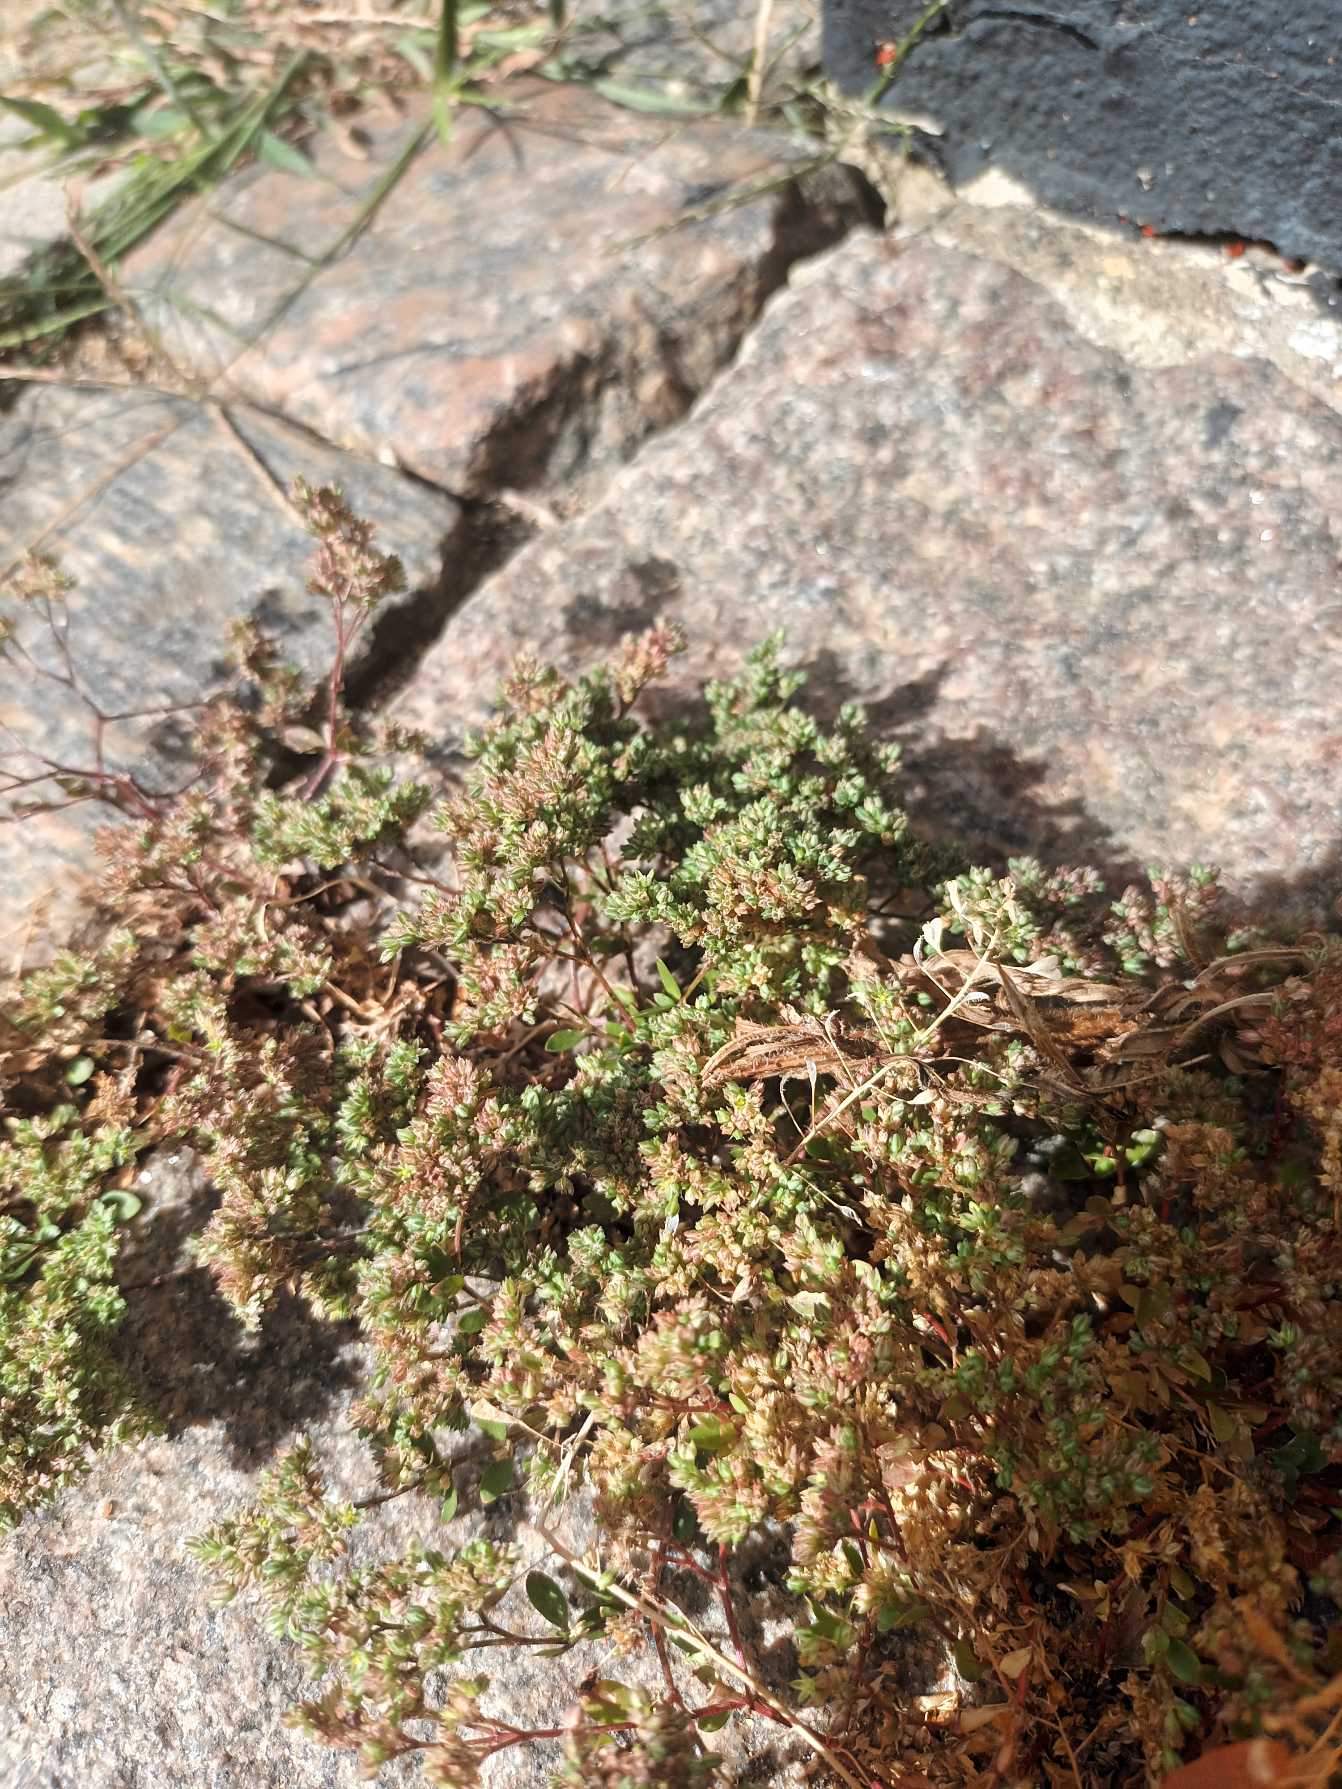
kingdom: Plantae
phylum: Tracheophyta
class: Magnoliopsida
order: Caryophyllales
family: Caryophyllaceae
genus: Polycarpon
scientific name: Polycarpon tetraphyllum
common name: Firbladet mangefrø
